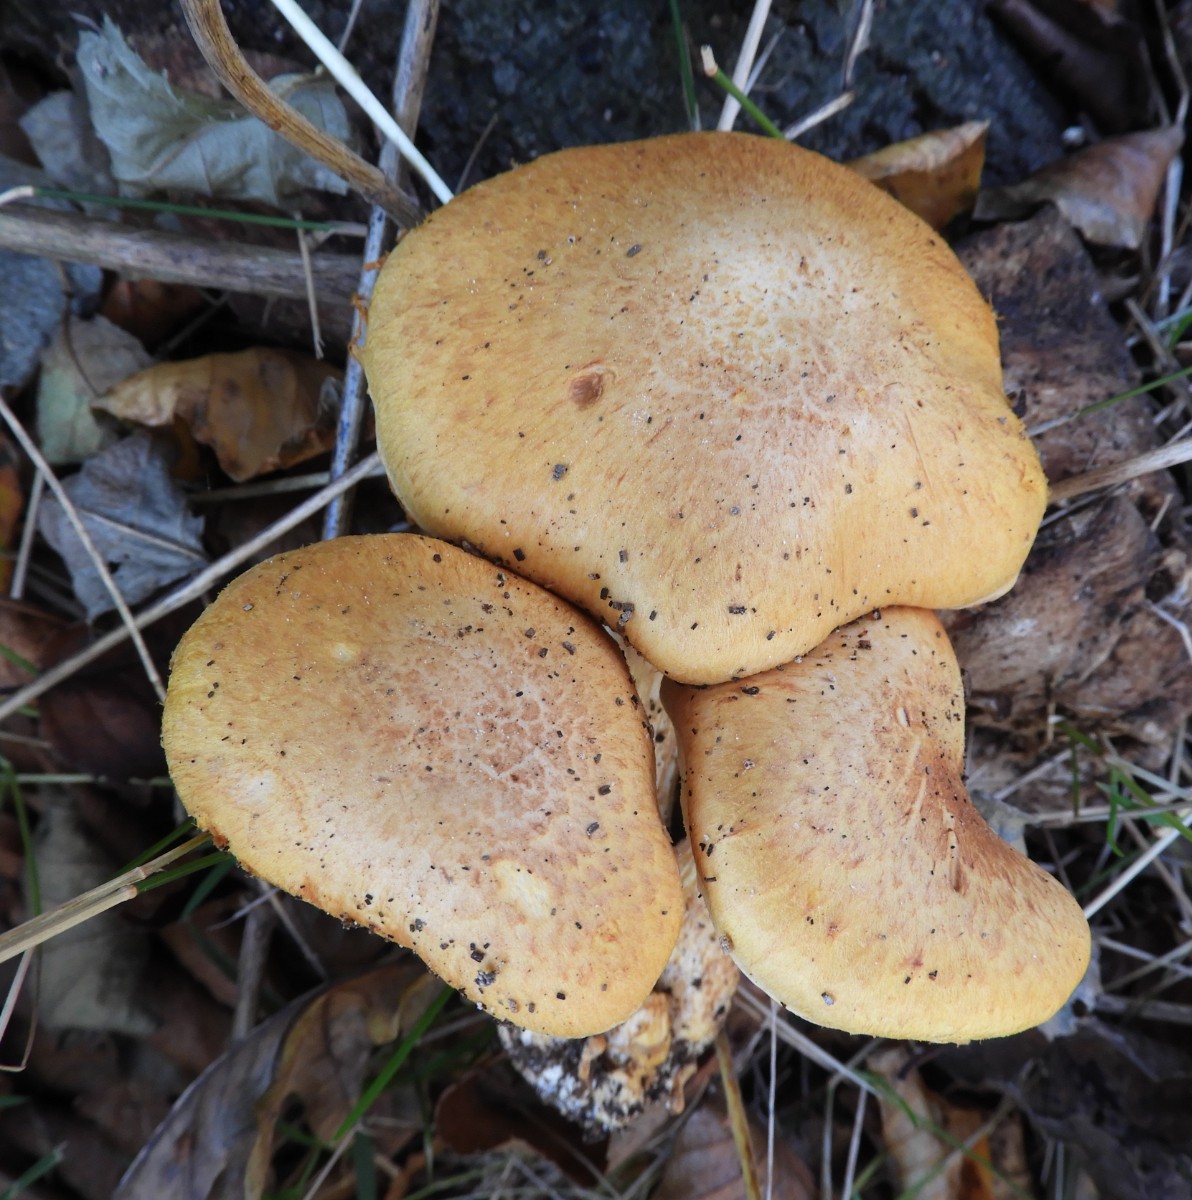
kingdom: Fungi
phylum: Basidiomycota
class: Agaricomycetes
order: Agaricales
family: Hymenogastraceae
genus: Gymnopilus
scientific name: Gymnopilus spectabilis
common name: fibret flammehat
